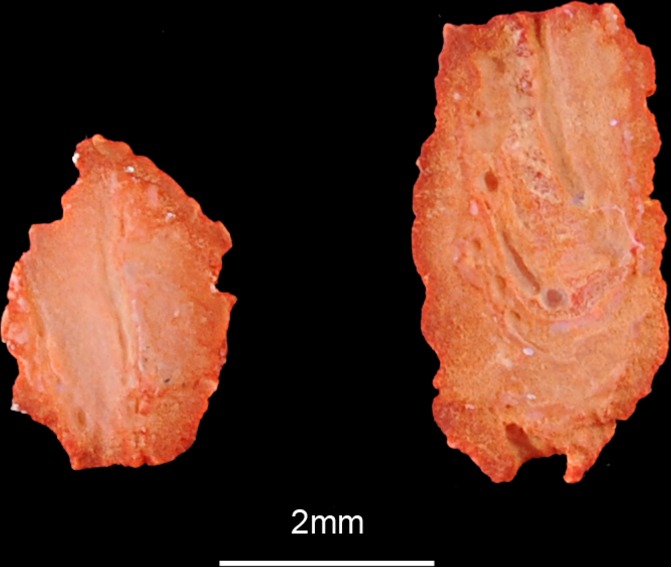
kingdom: Animalia
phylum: Chordata
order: Perciformes
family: Percidae
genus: Perca
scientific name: Perca fluviatilis
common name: Perch
